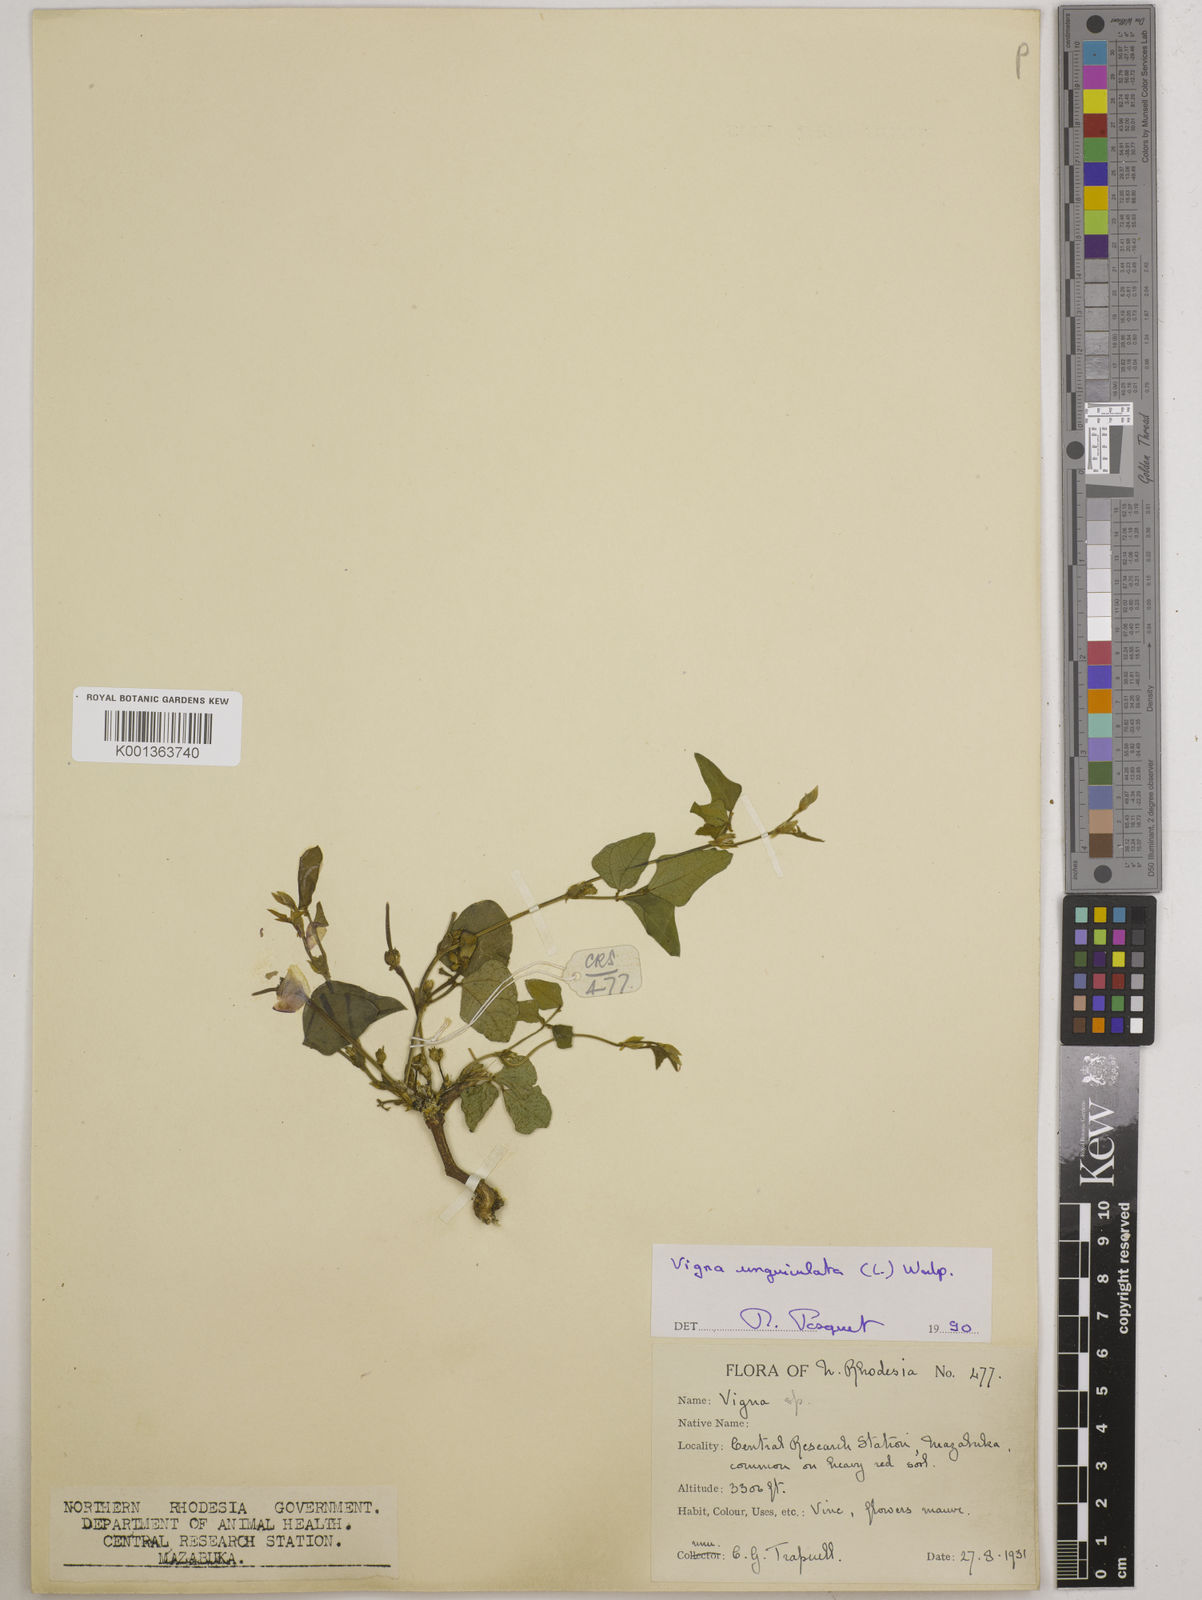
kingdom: Plantae
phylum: Tracheophyta
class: Magnoliopsida
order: Fabales
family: Fabaceae
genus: Vigna
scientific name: Vigna unguiculata
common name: Cowpea
